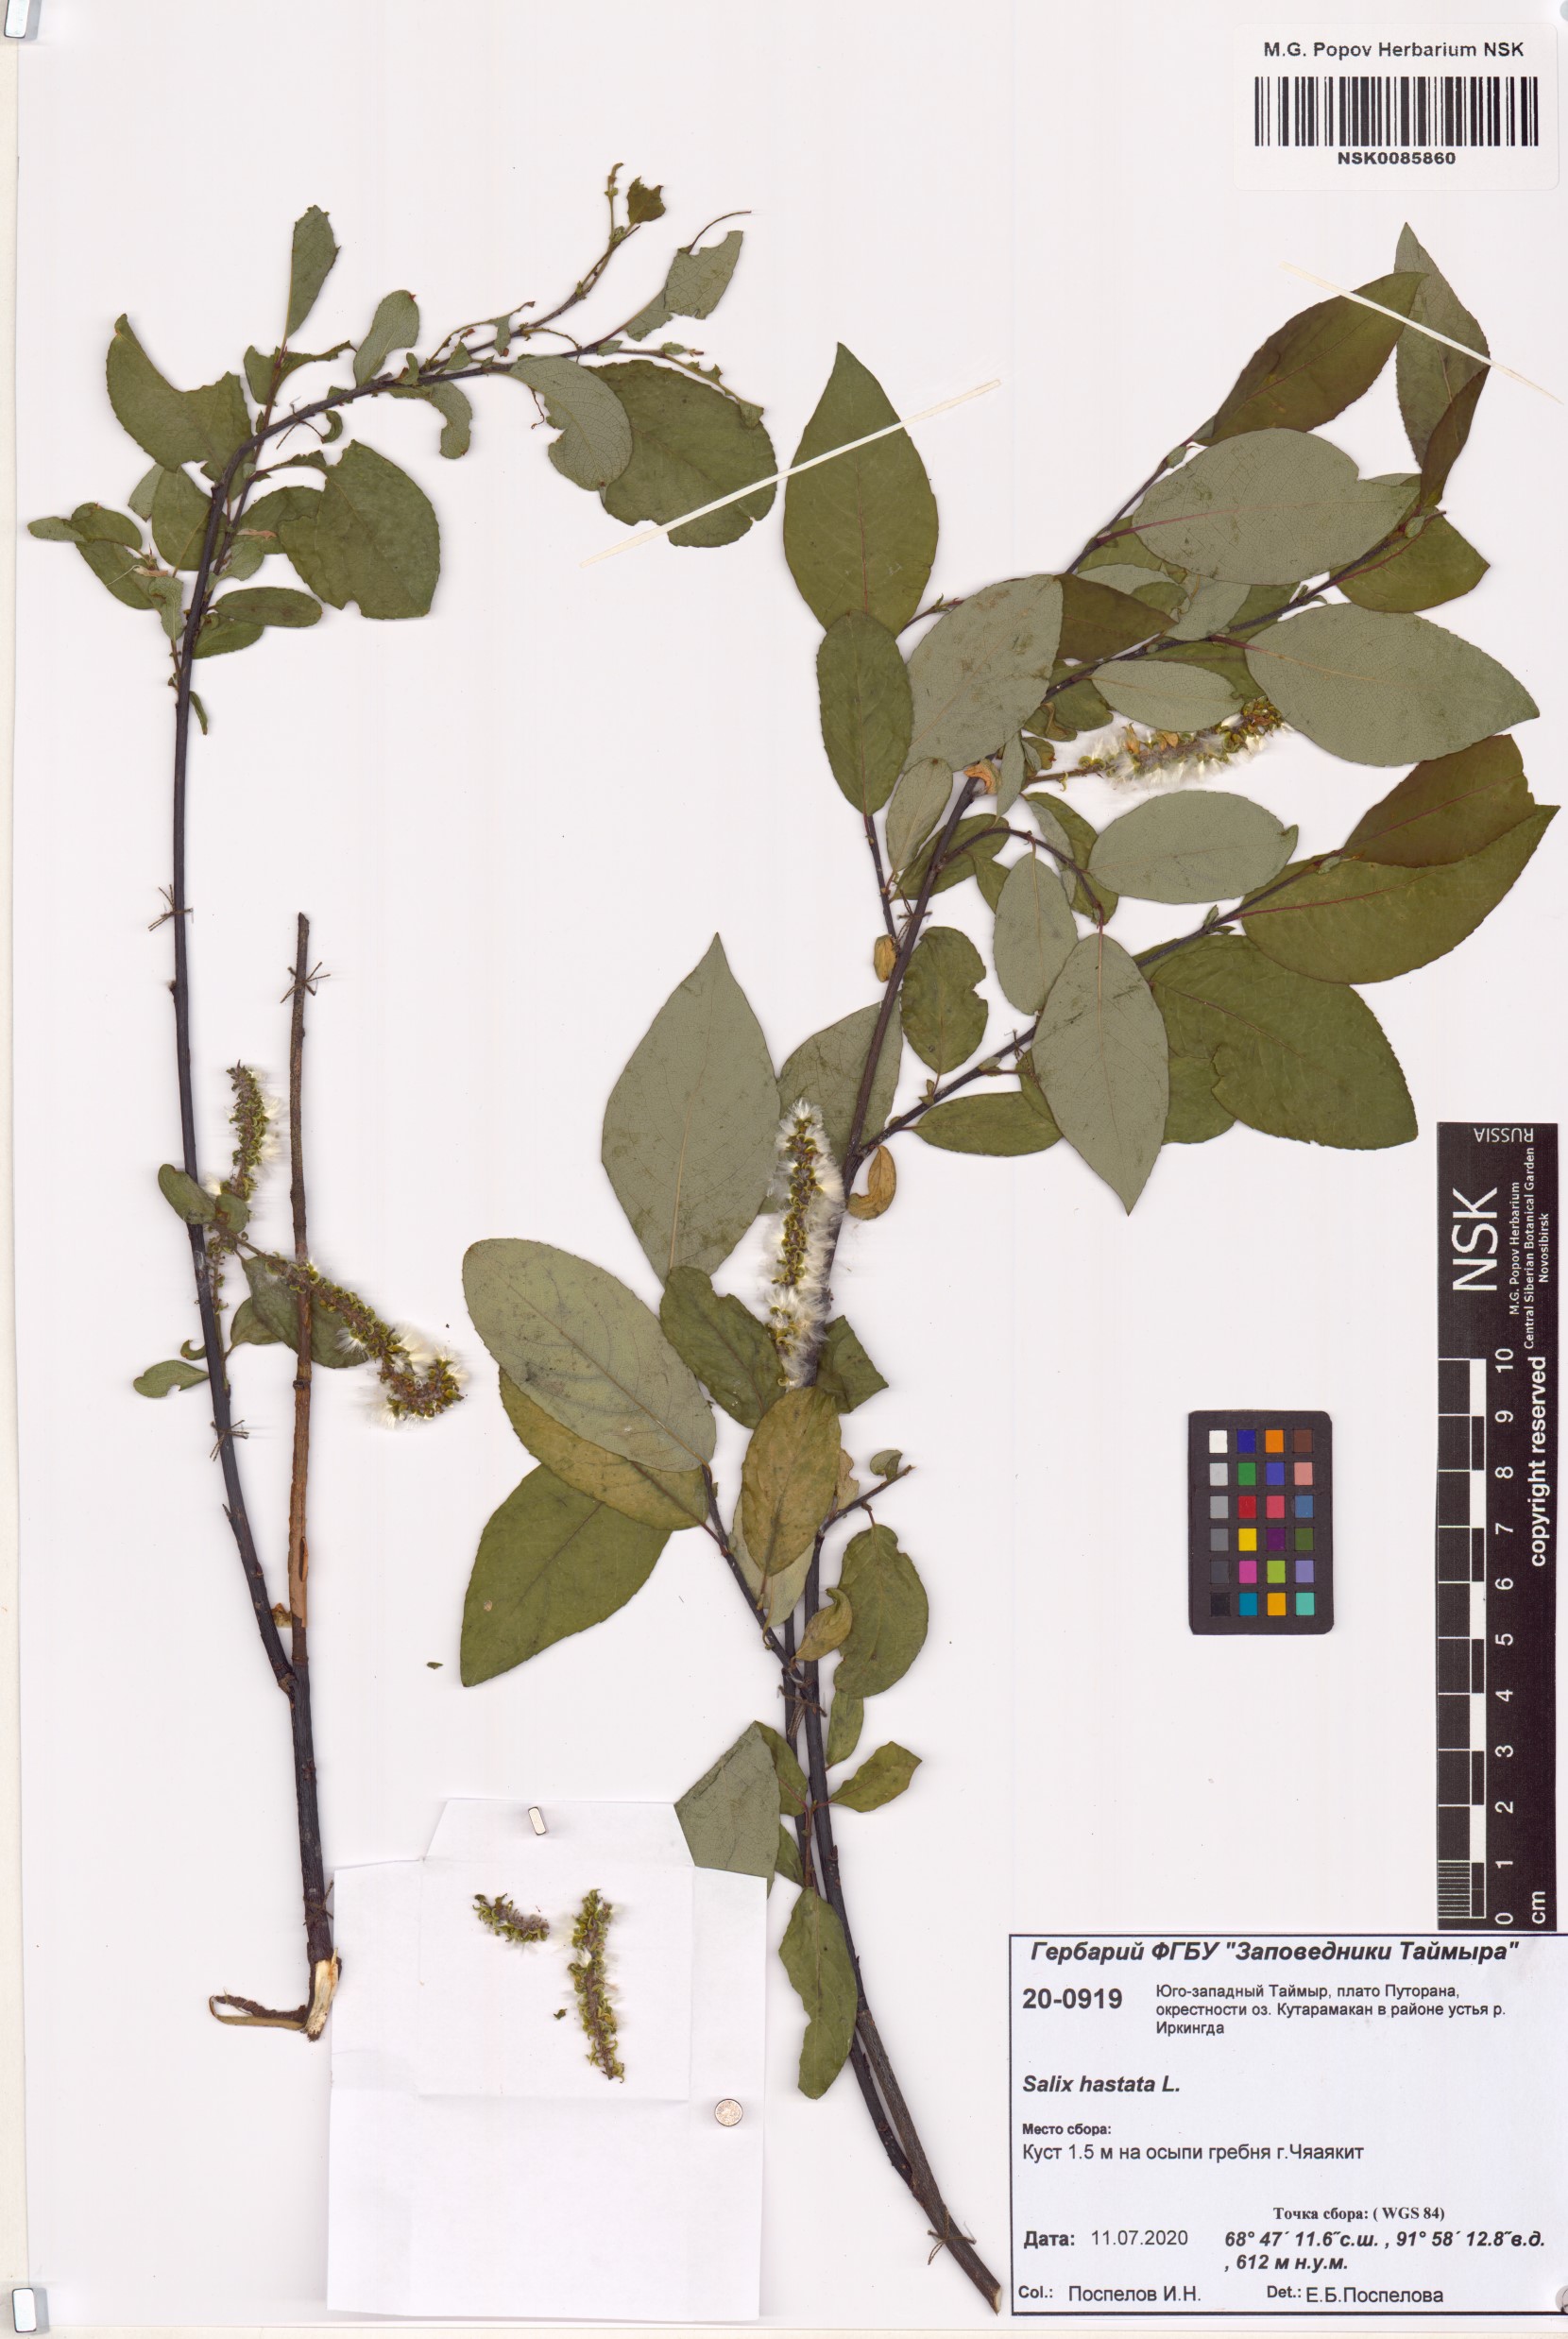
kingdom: Plantae
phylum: Tracheophyta
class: Magnoliopsida
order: Malpighiales
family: Salicaceae
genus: Salix
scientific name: Salix hastata
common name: Halberd willow
